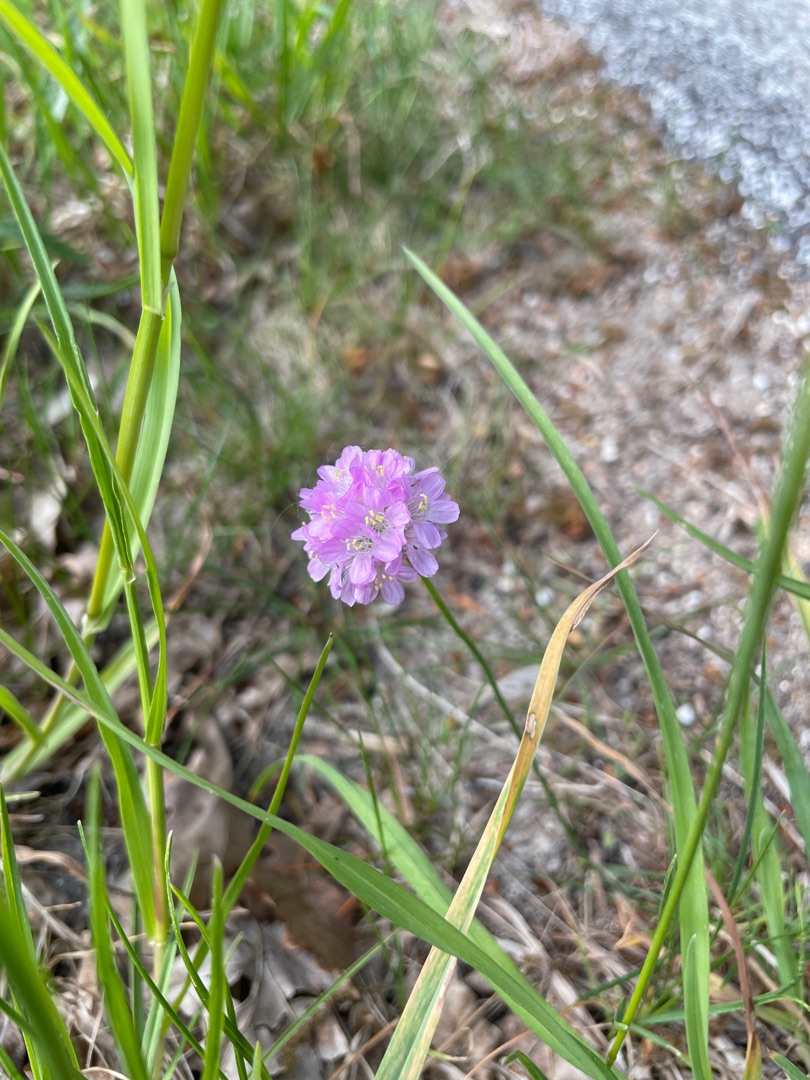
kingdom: Plantae
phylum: Tracheophyta
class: Magnoliopsida
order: Caryophyllales
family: Plumbaginaceae
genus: Armeria
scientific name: Armeria maritima
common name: Engelskgræs
